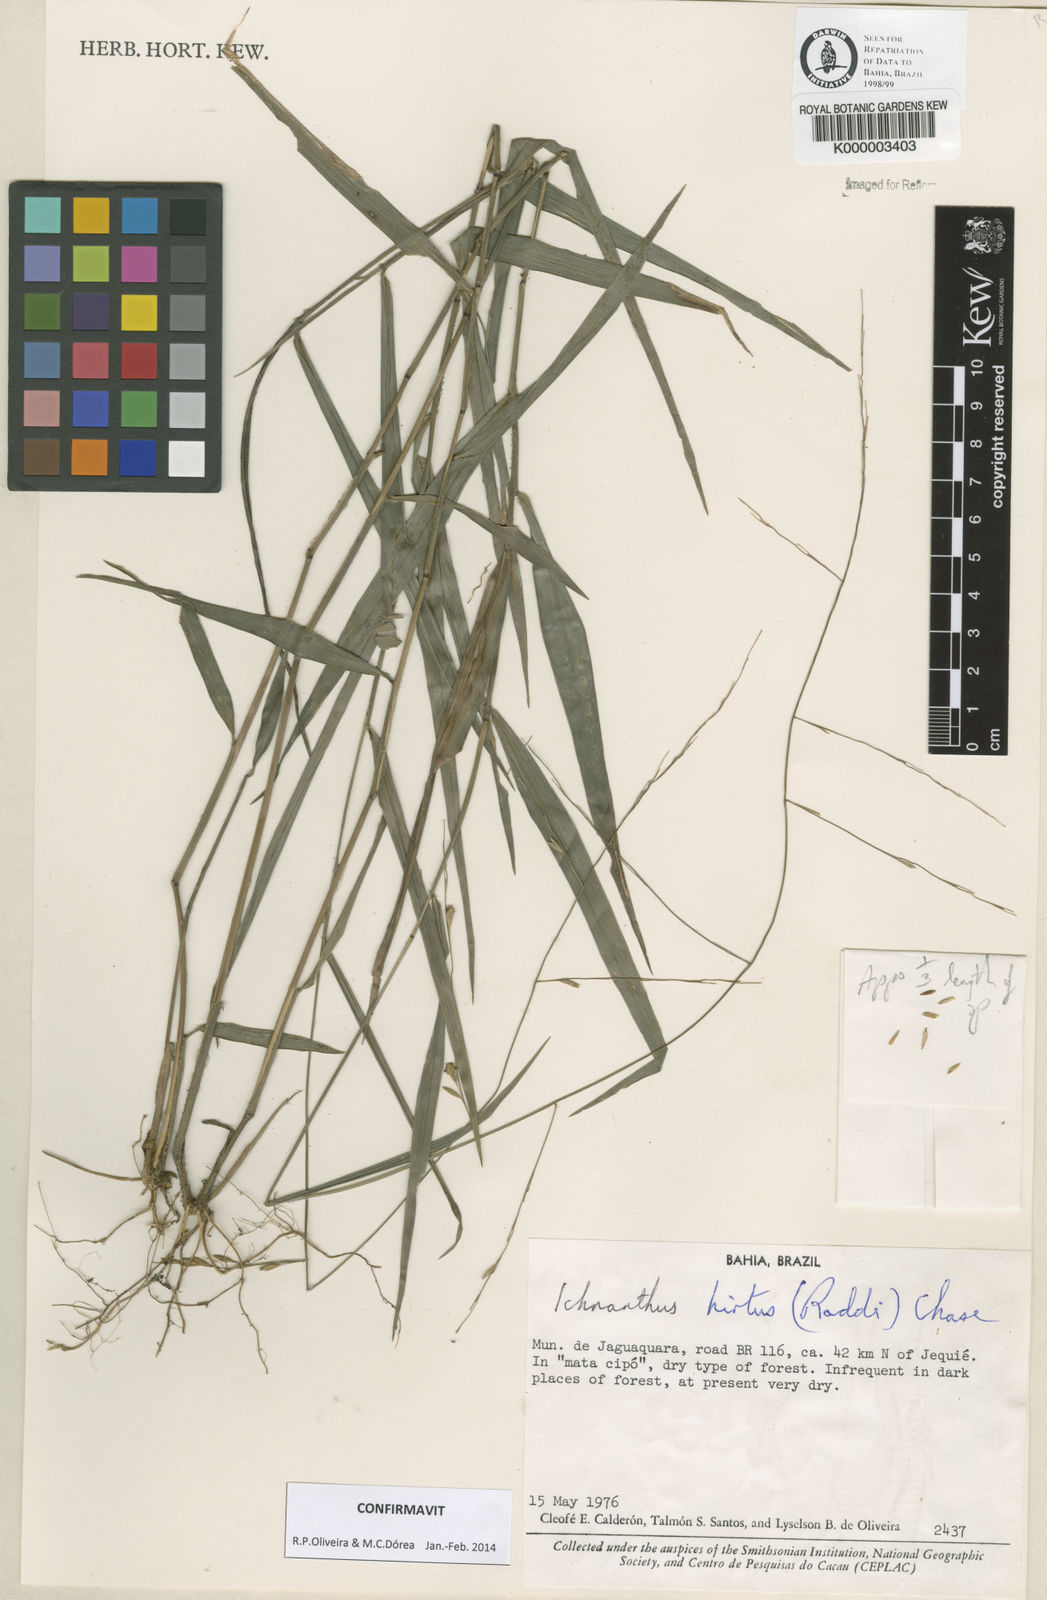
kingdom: Plantae
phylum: Tracheophyta
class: Liliopsida
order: Poales
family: Poaceae
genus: Ichnanthus
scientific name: Ichnanthus hirtus
